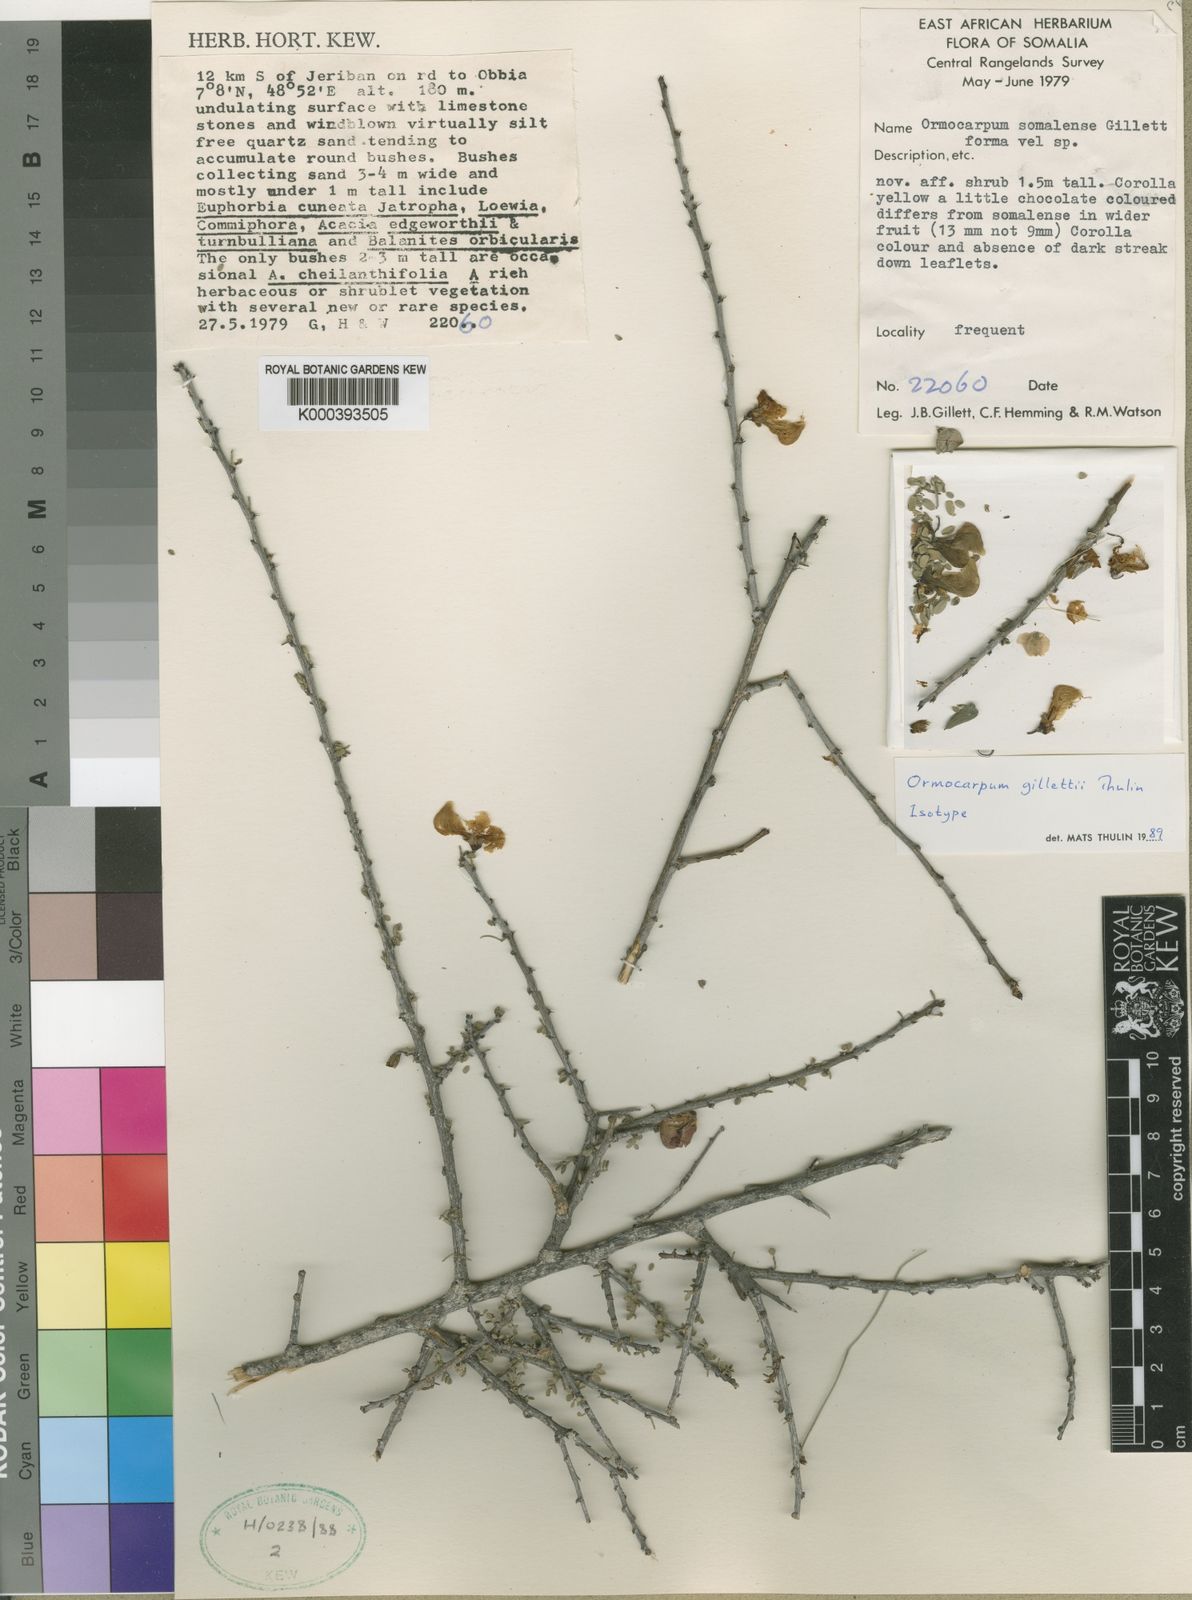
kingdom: Plantae
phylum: Tracheophyta
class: Magnoliopsida
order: Fabales
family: Fabaceae
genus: Zygocarpum
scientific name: Zygocarpum gillettii
